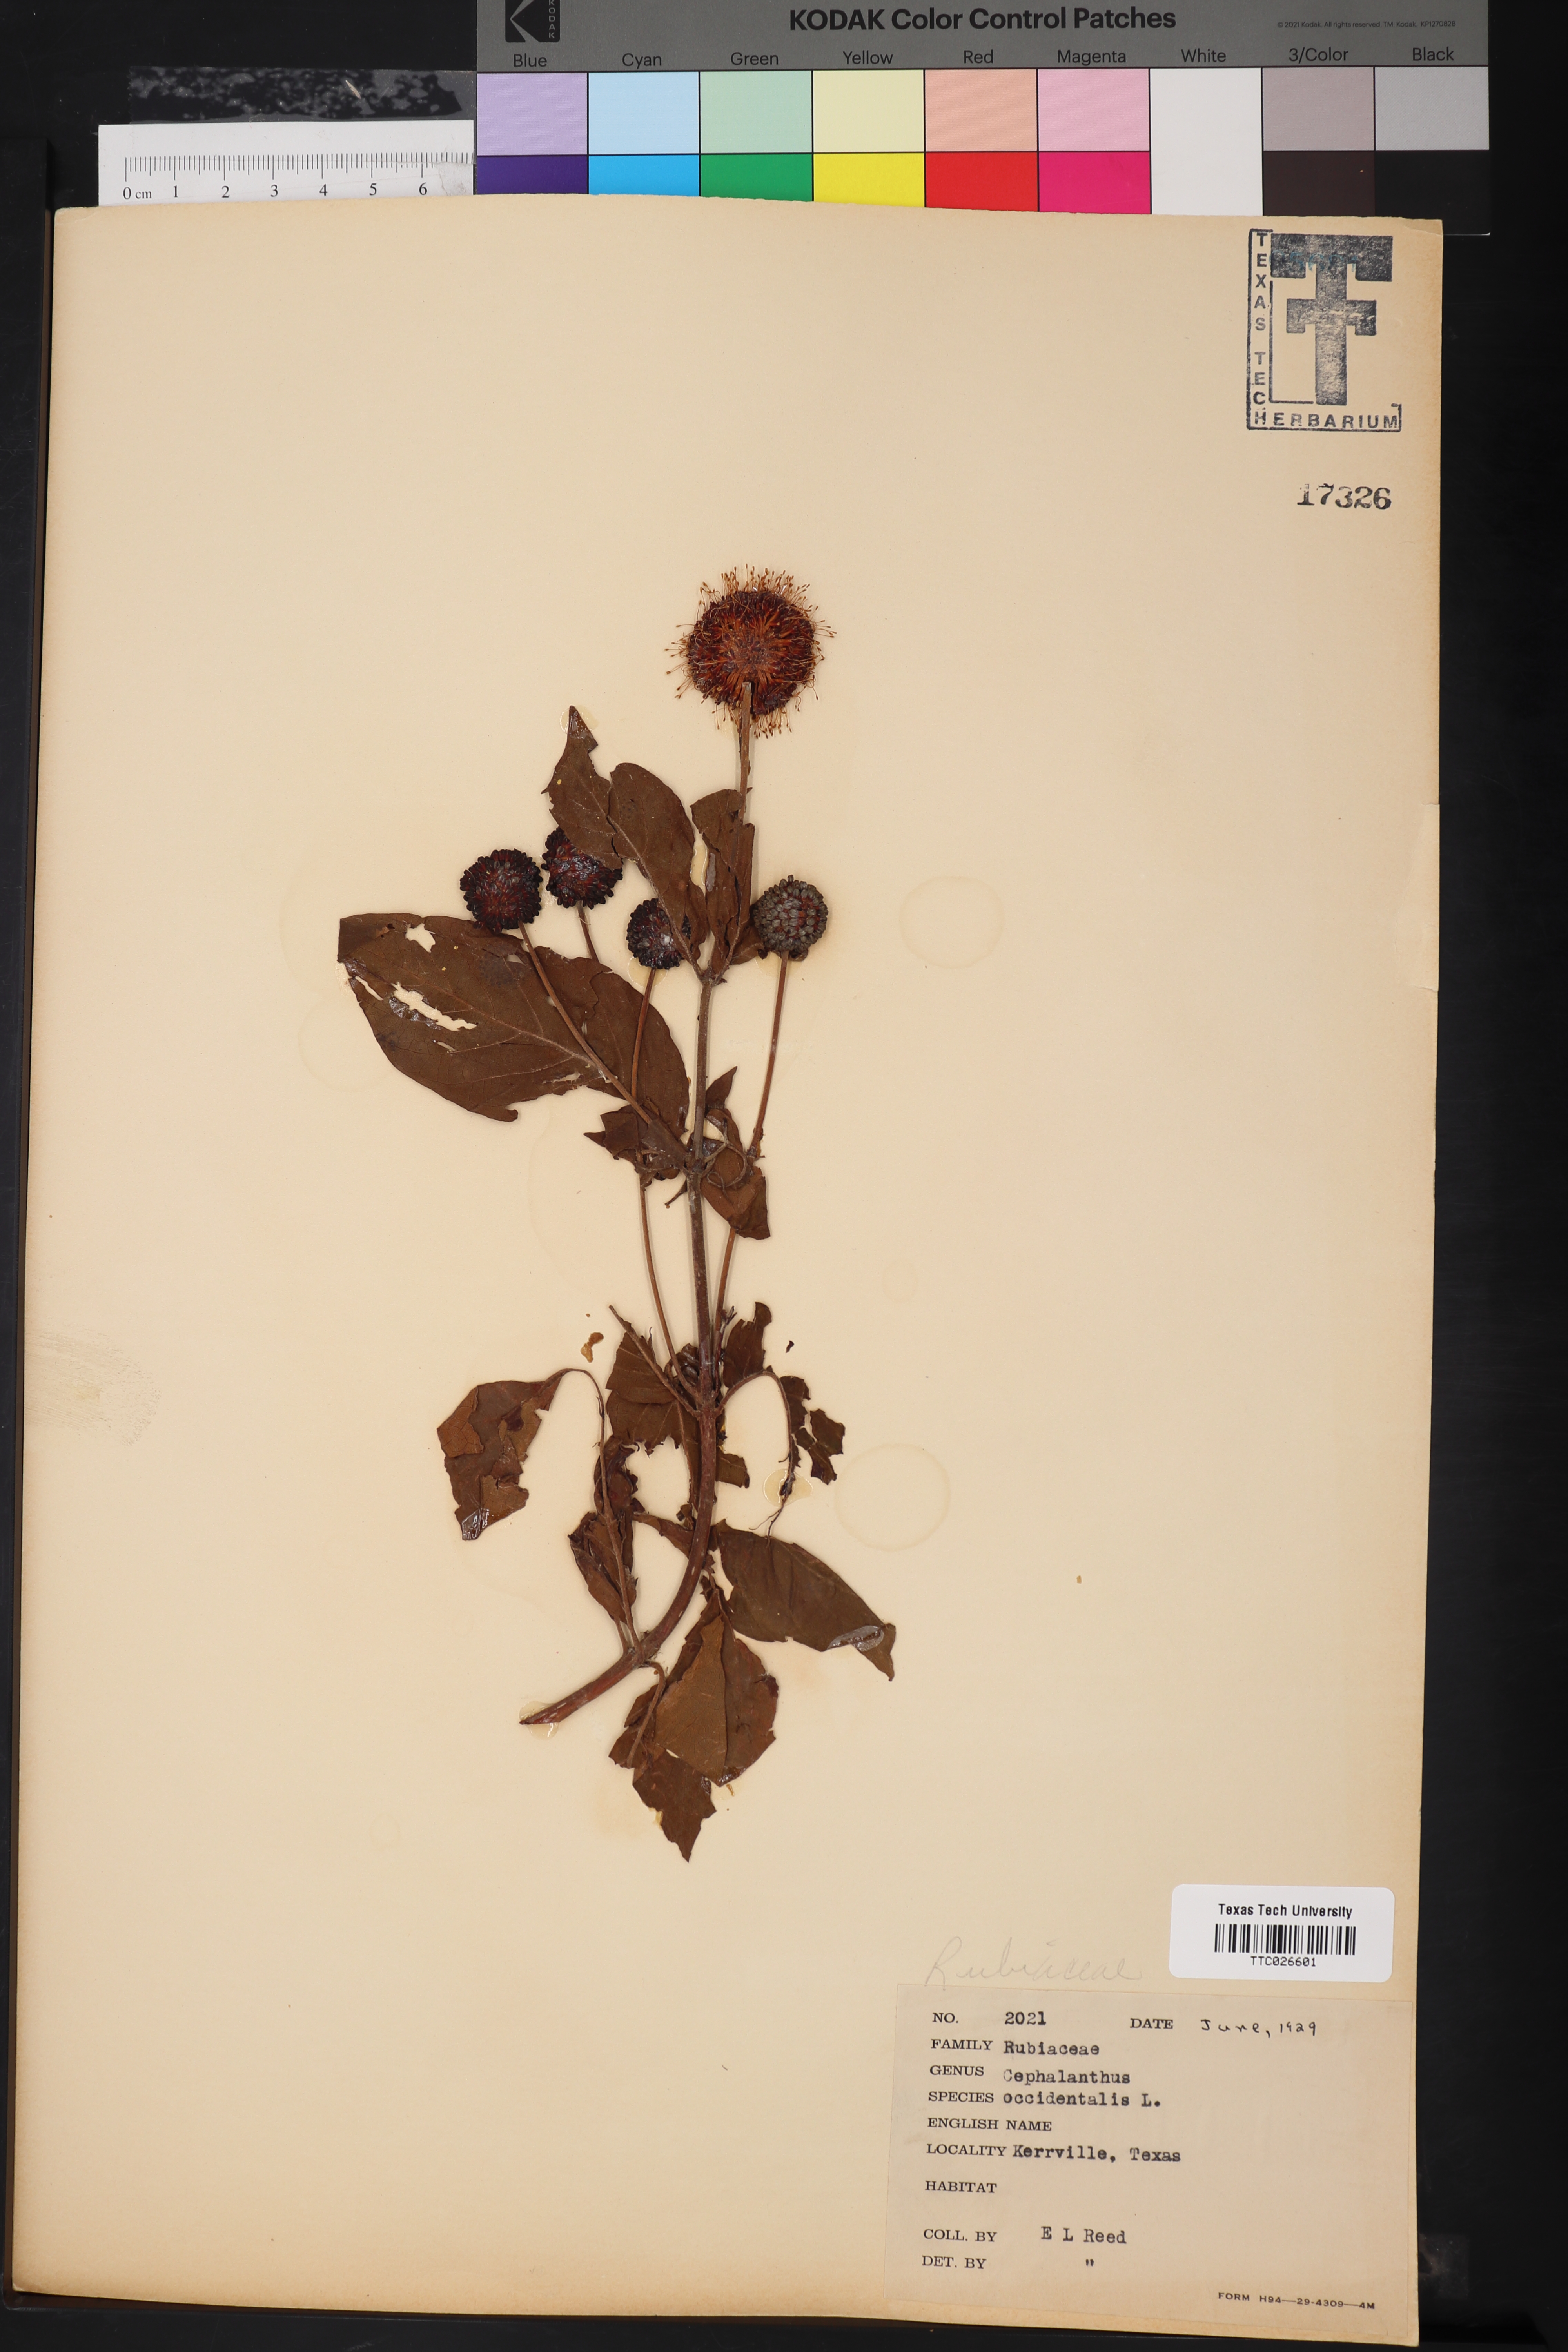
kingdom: Plantae
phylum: Tracheophyta
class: Magnoliopsida
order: Gentianales
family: Rubiaceae
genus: Cephalanthus
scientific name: Cephalanthus occidentalis
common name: Button-willow
